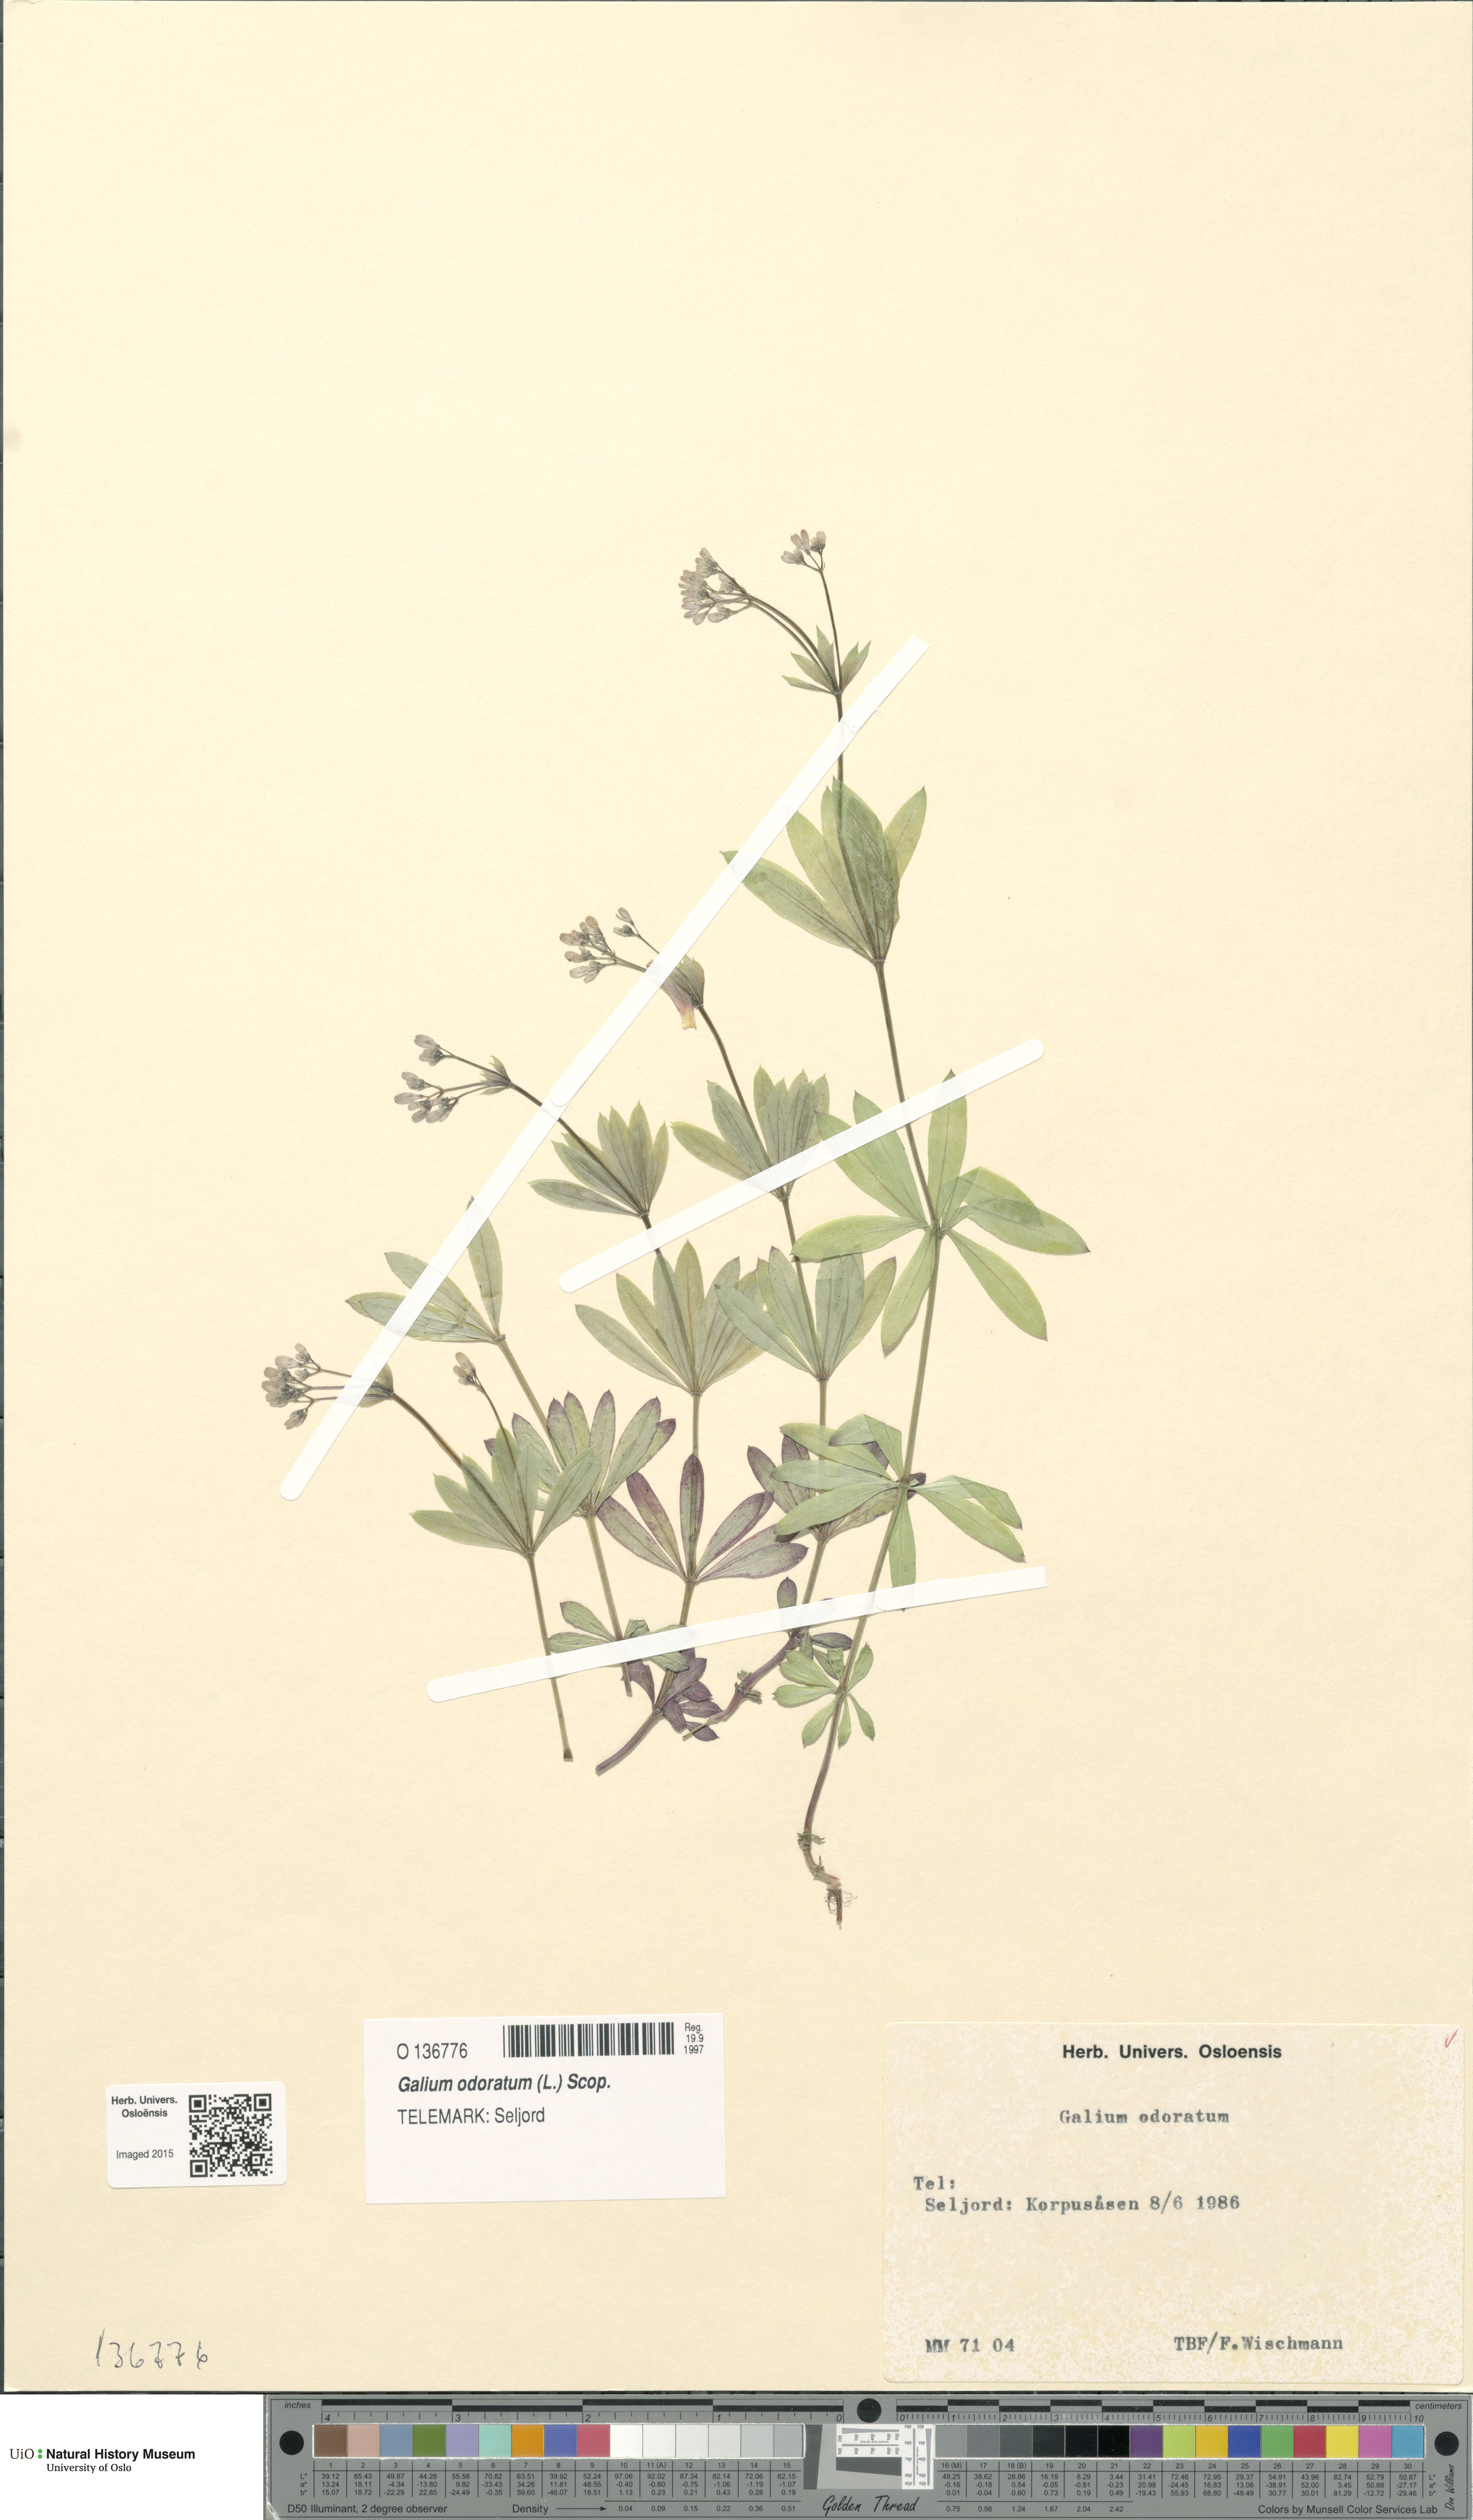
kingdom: Plantae
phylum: Tracheophyta
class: Magnoliopsida
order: Gentianales
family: Rubiaceae
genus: Galium
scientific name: Galium odoratum
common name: Sweet woodruff
